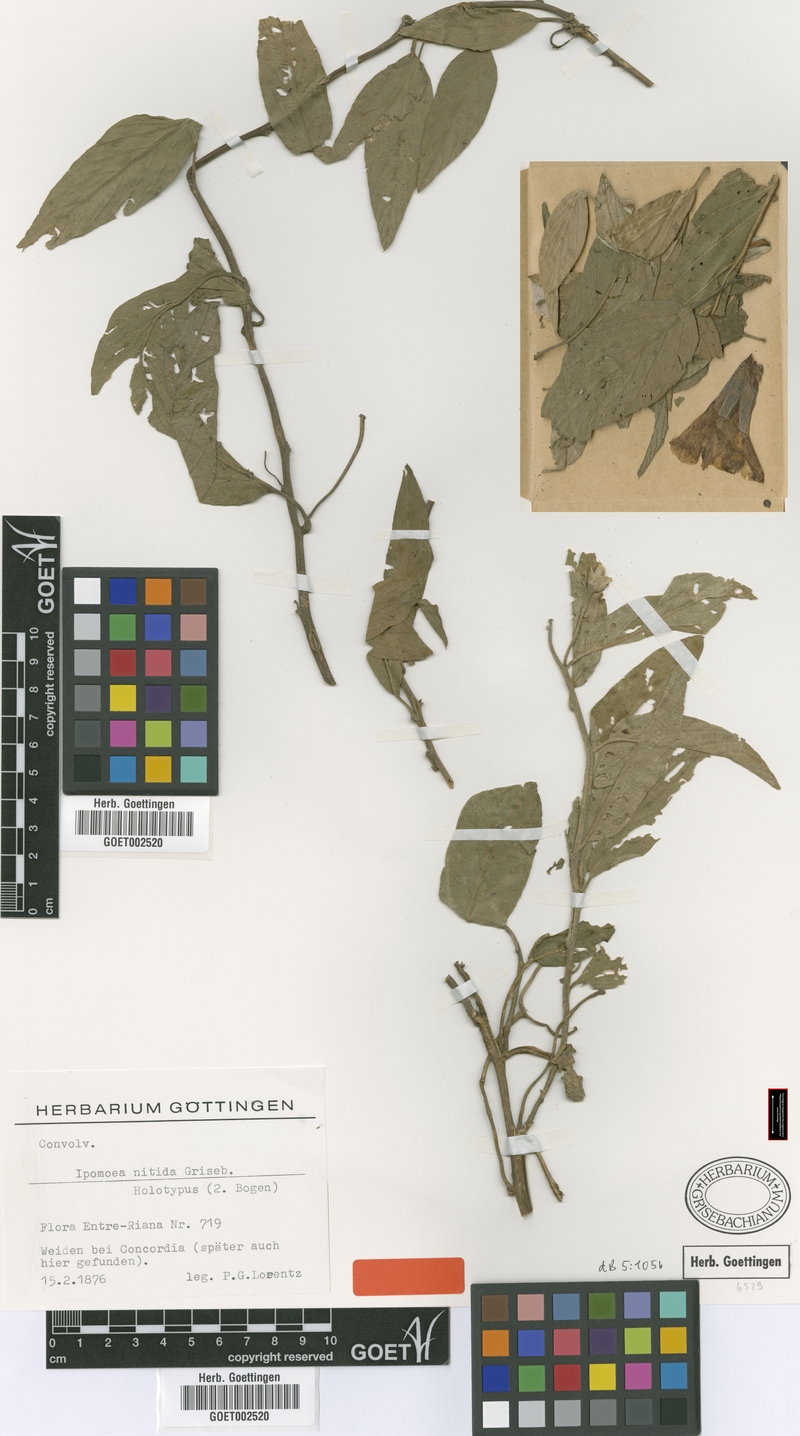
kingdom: Plantae
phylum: Tracheophyta
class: Magnoliopsida
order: Solanales
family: Convolvulaceae
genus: Ipomoea
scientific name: Ipomoea nitida
